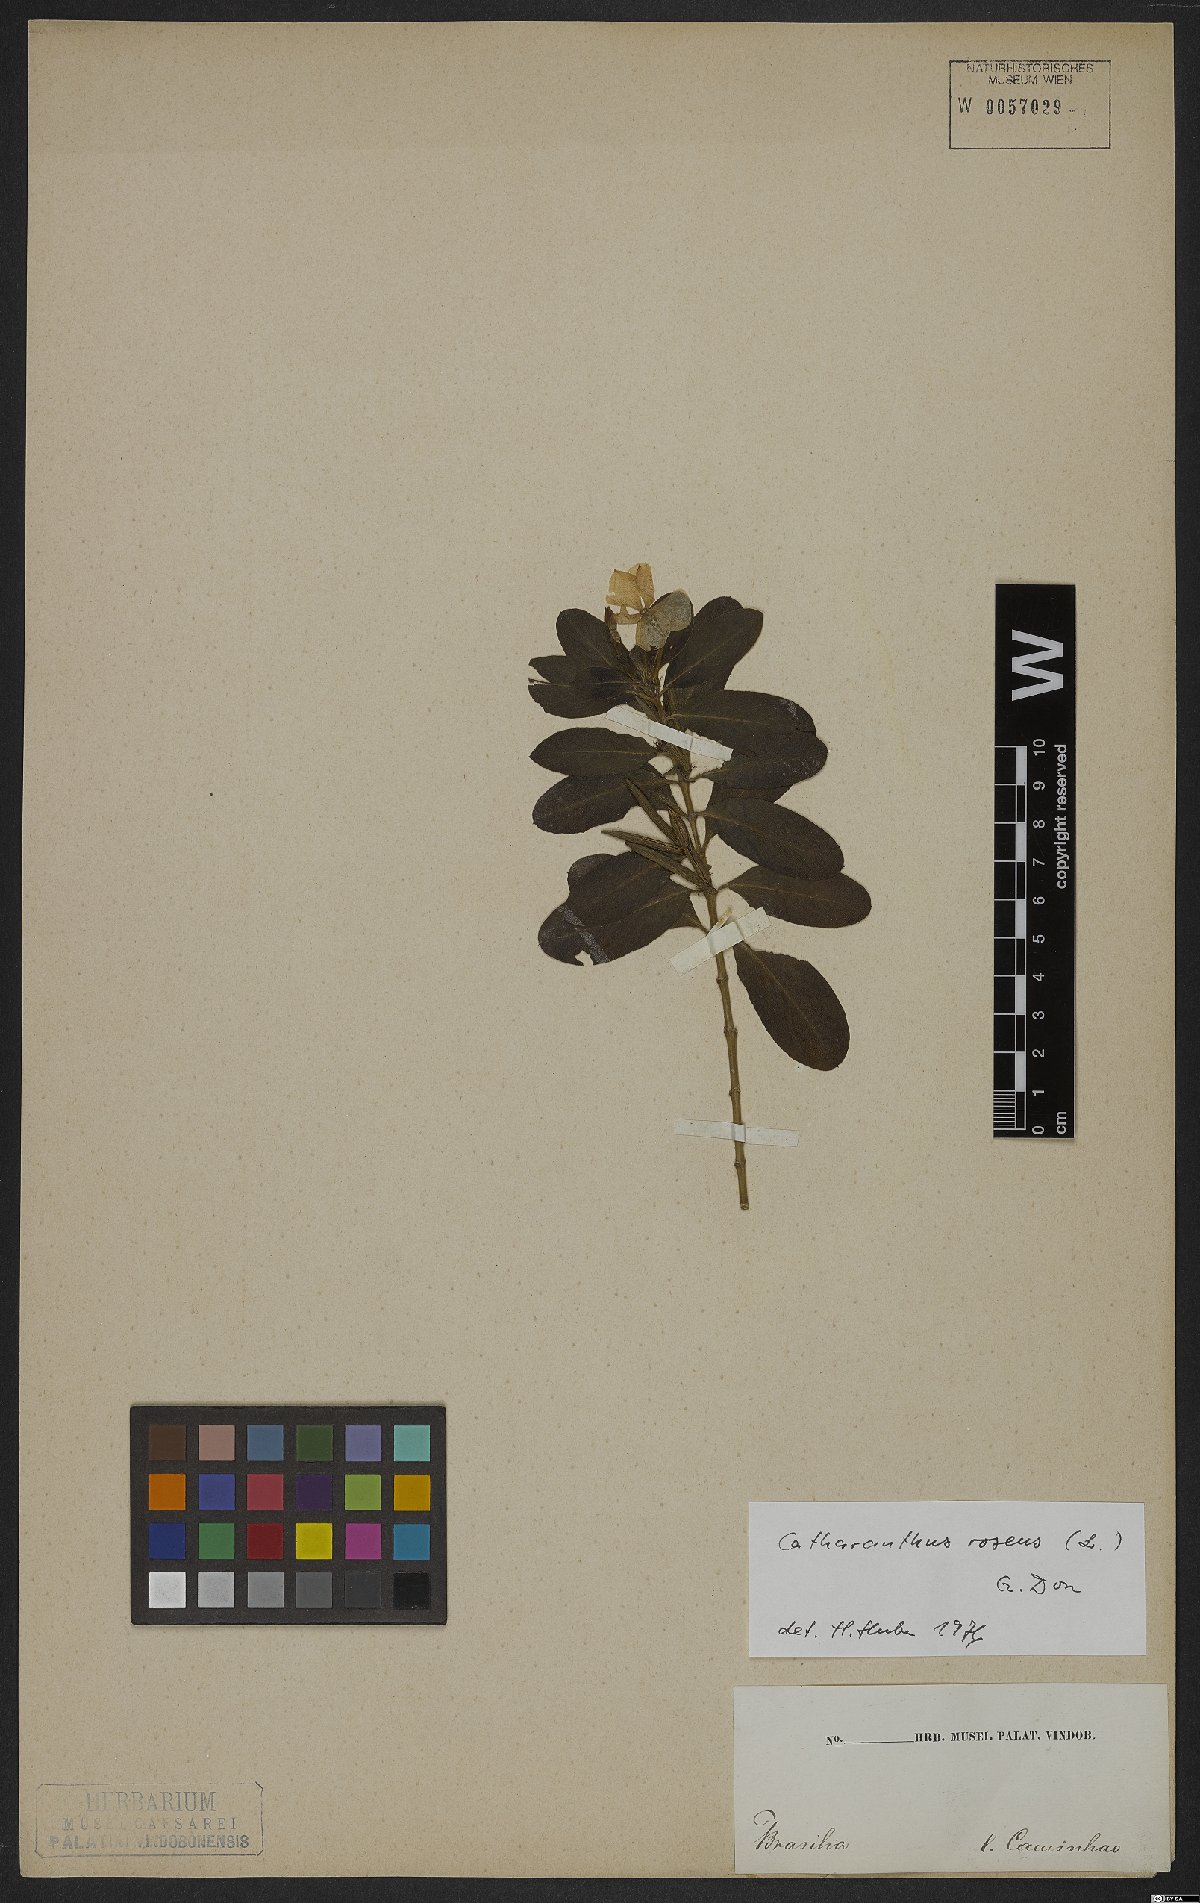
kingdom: Plantae
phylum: Tracheophyta
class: Magnoliopsida
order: Gentianales
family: Apocynaceae
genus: Catharanthus
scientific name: Catharanthus roseus
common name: Madagascar periwinkle
